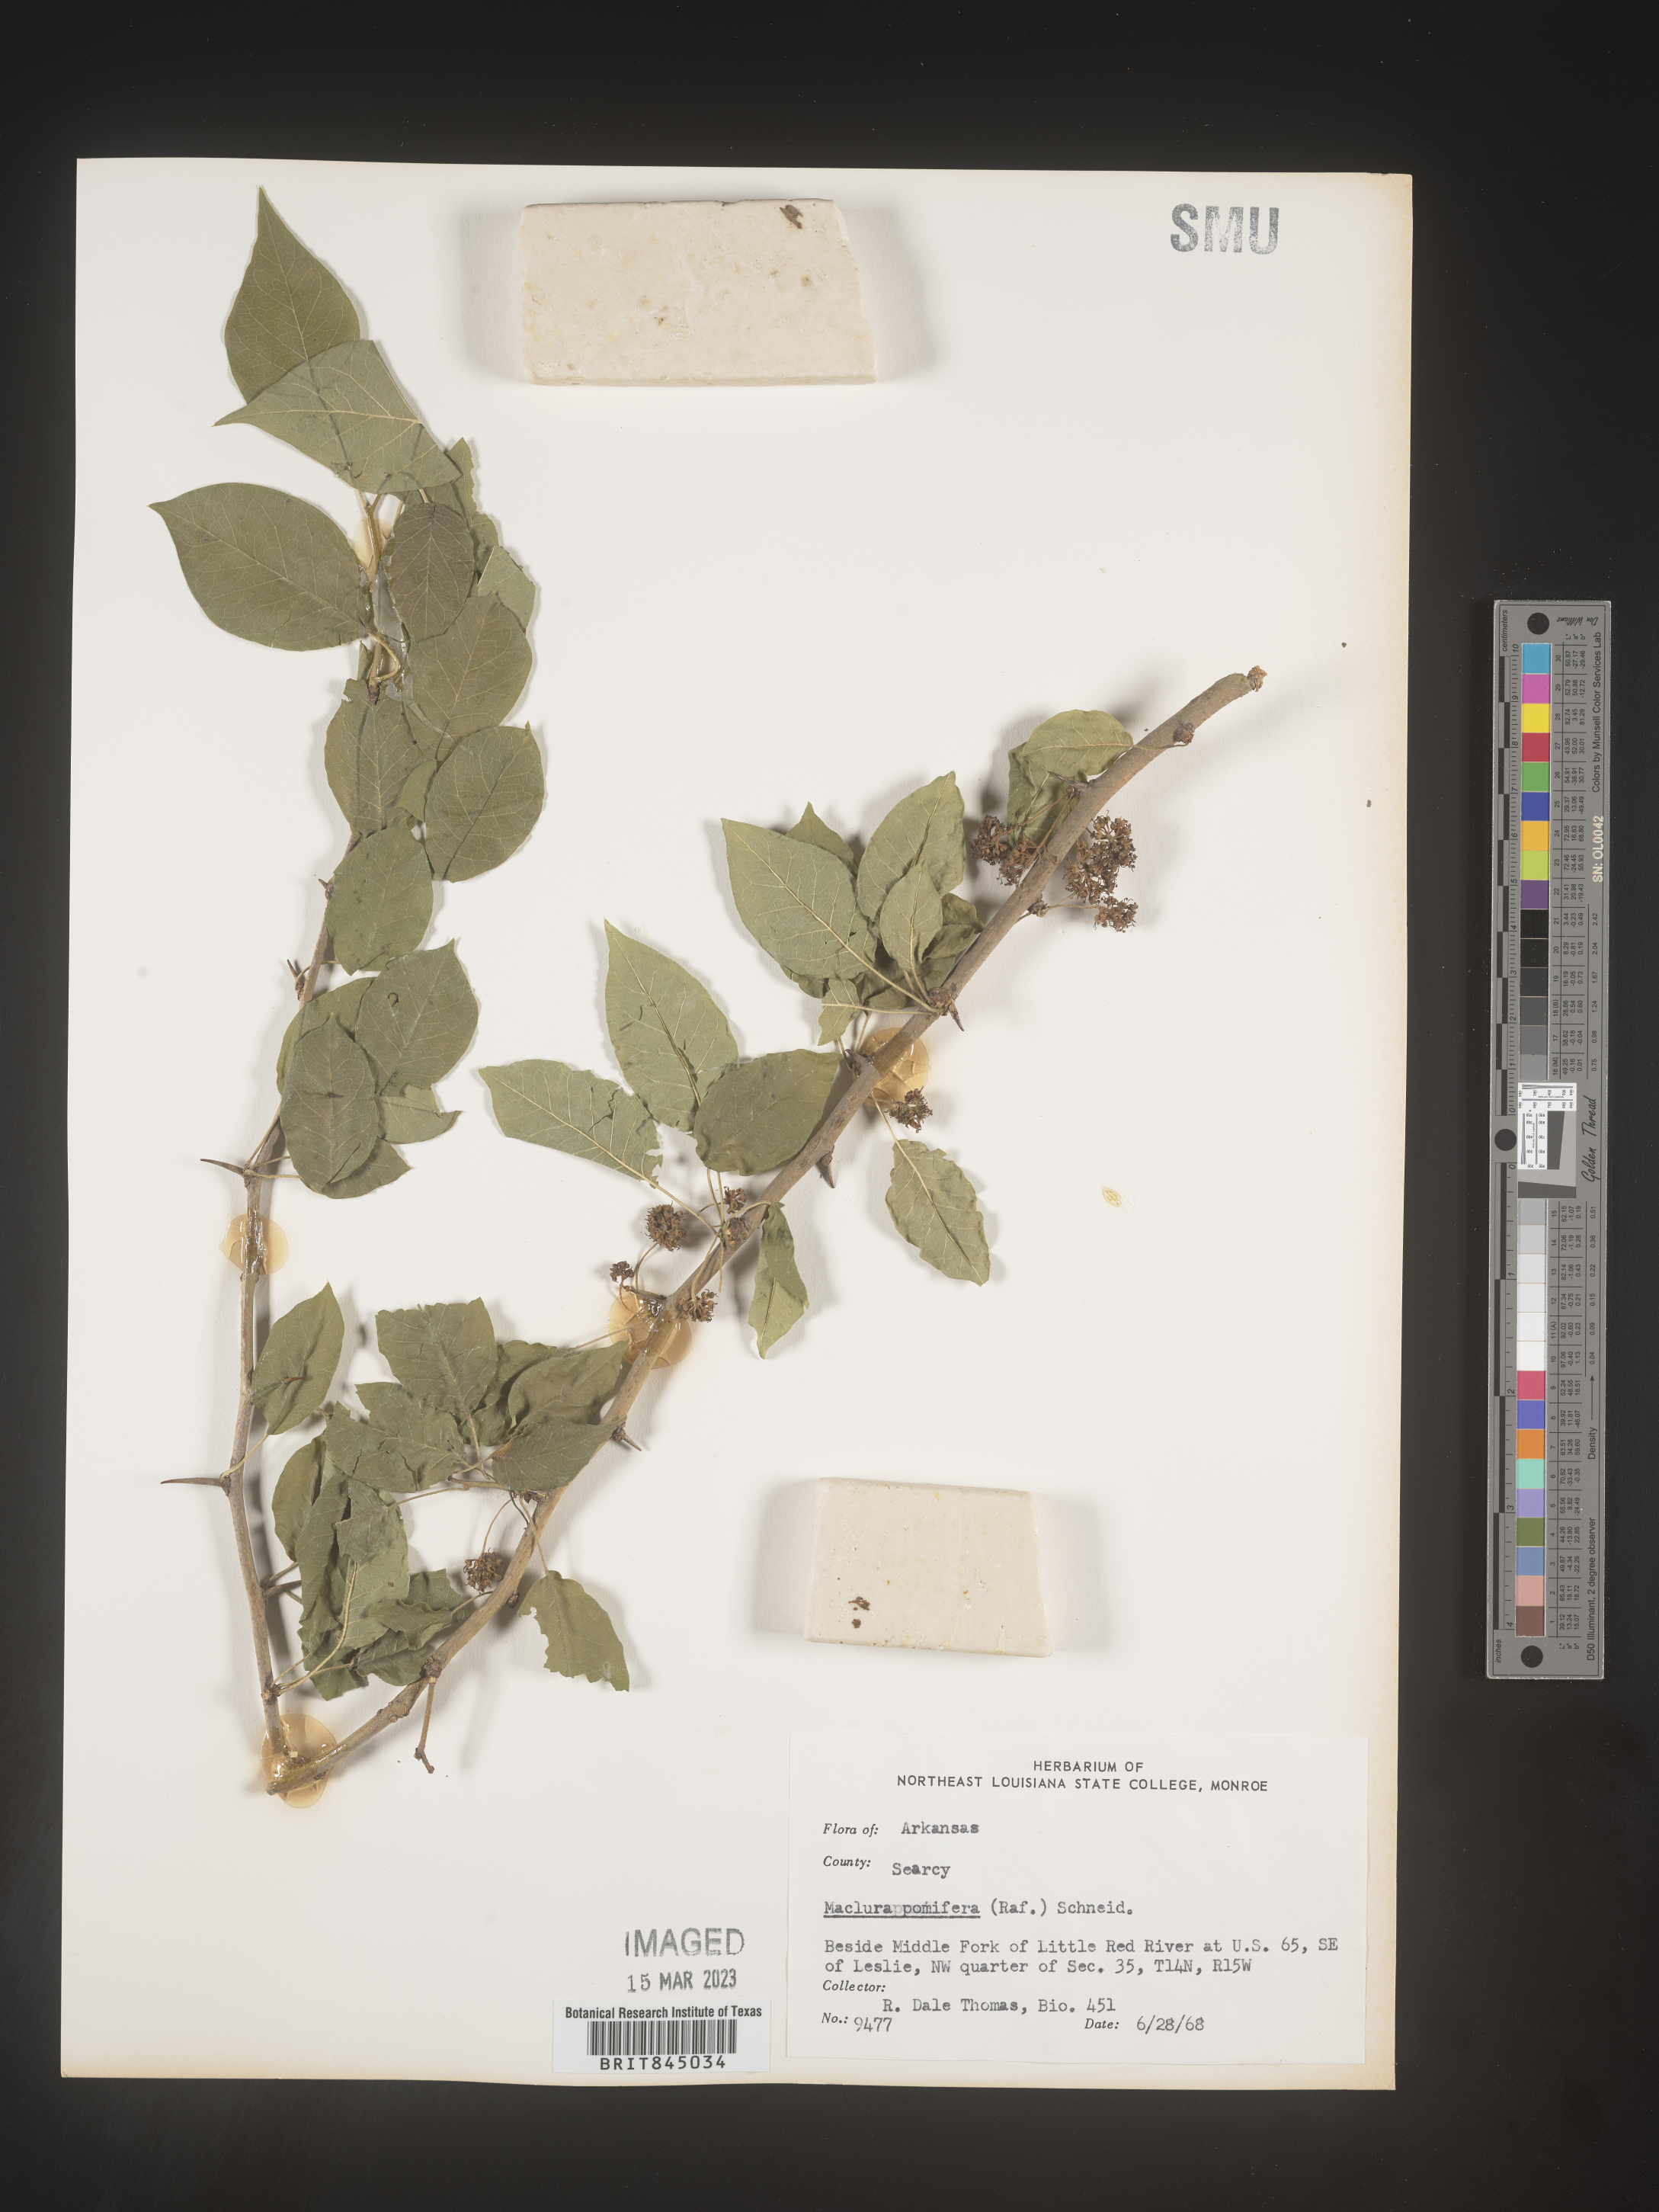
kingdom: Plantae
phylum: Tracheophyta
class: Magnoliopsida
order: Rosales
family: Moraceae
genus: Maclura
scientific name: Maclura pomifera
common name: Osage-orange
